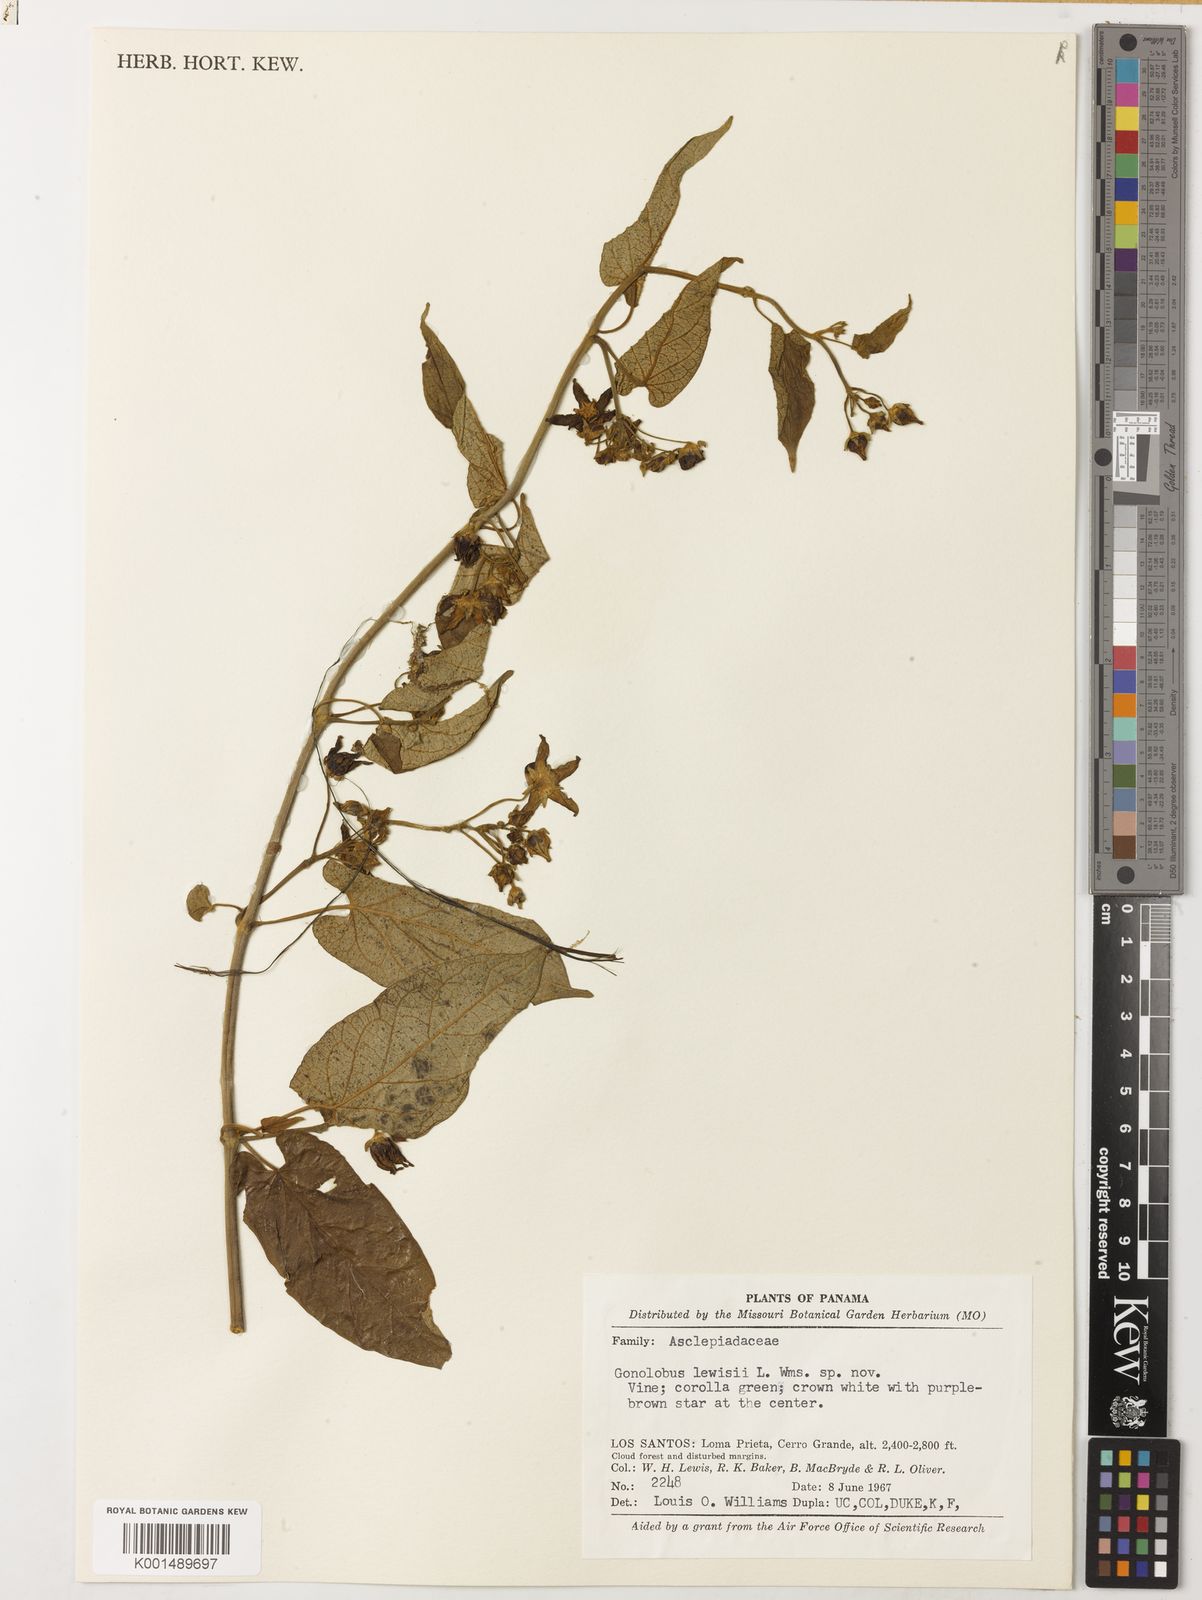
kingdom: Plantae
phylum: Tracheophyta
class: Magnoliopsida
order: Gentianales
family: Apocynaceae
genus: Gonolobus
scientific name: Gonolobus lewisii
